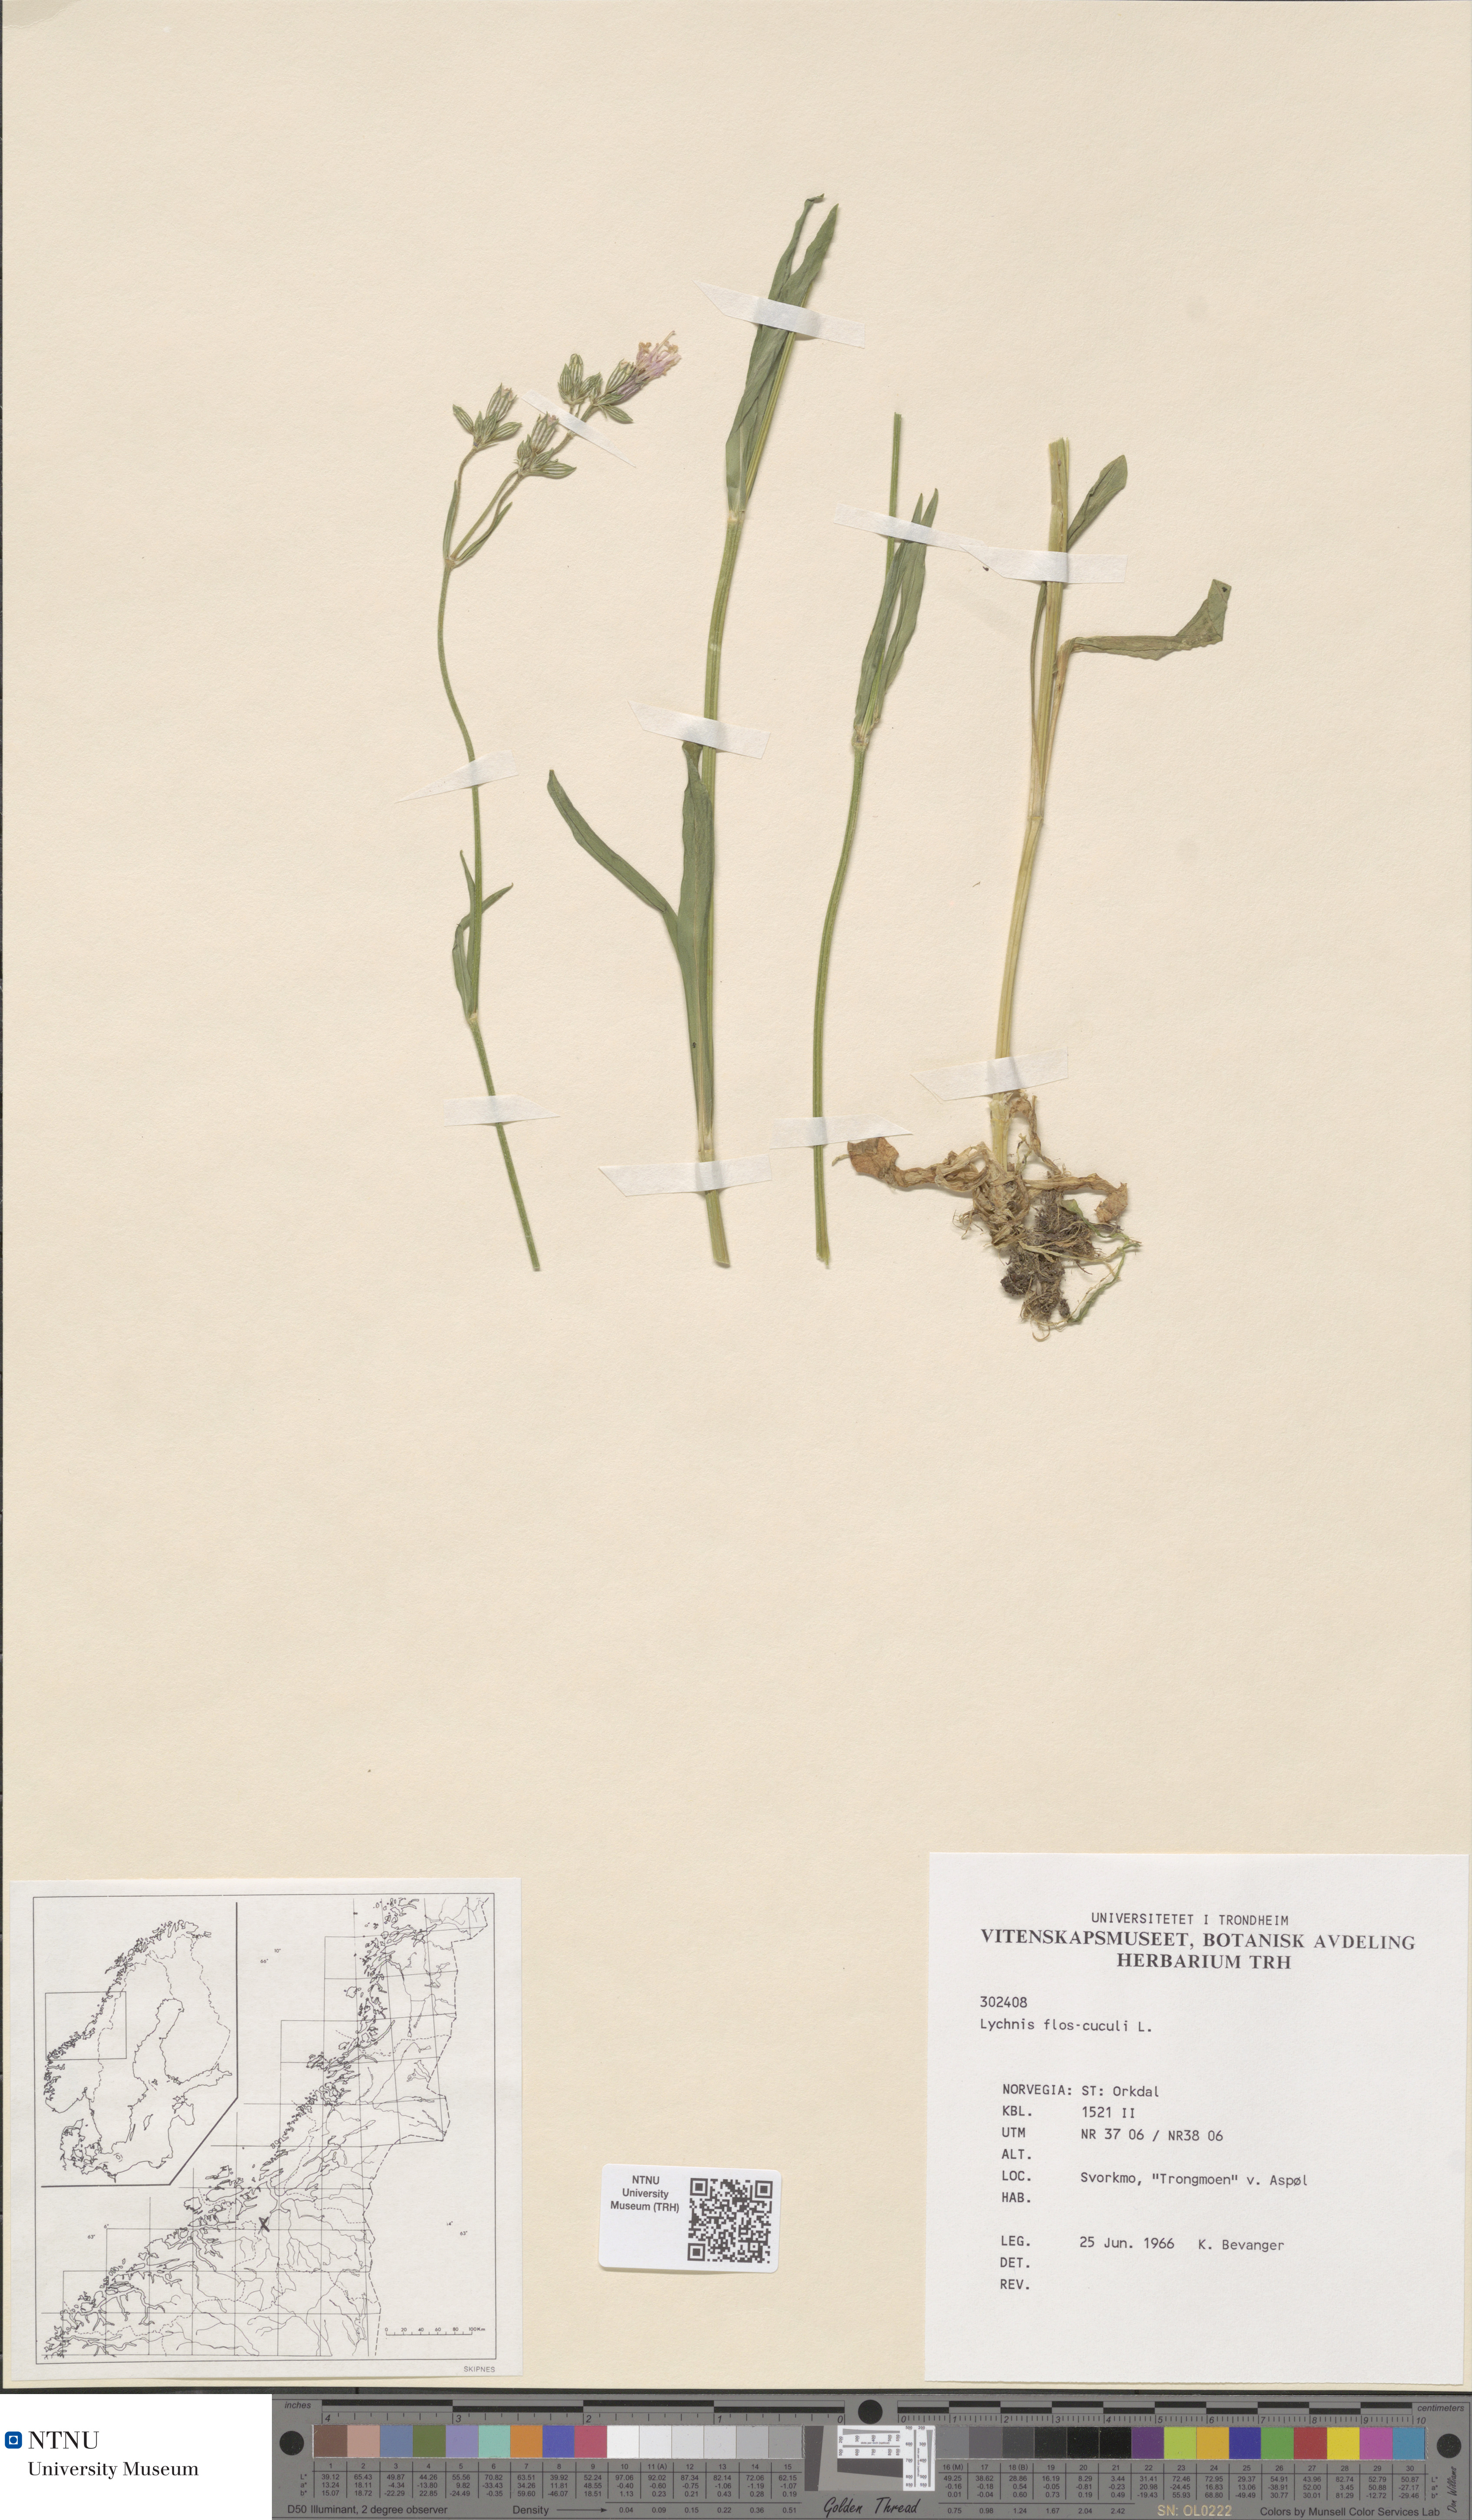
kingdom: Plantae
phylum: Tracheophyta
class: Magnoliopsida
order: Caryophyllales
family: Caryophyllaceae
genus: Silene
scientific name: Silene flos-cuculi
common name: Ragged-robin
